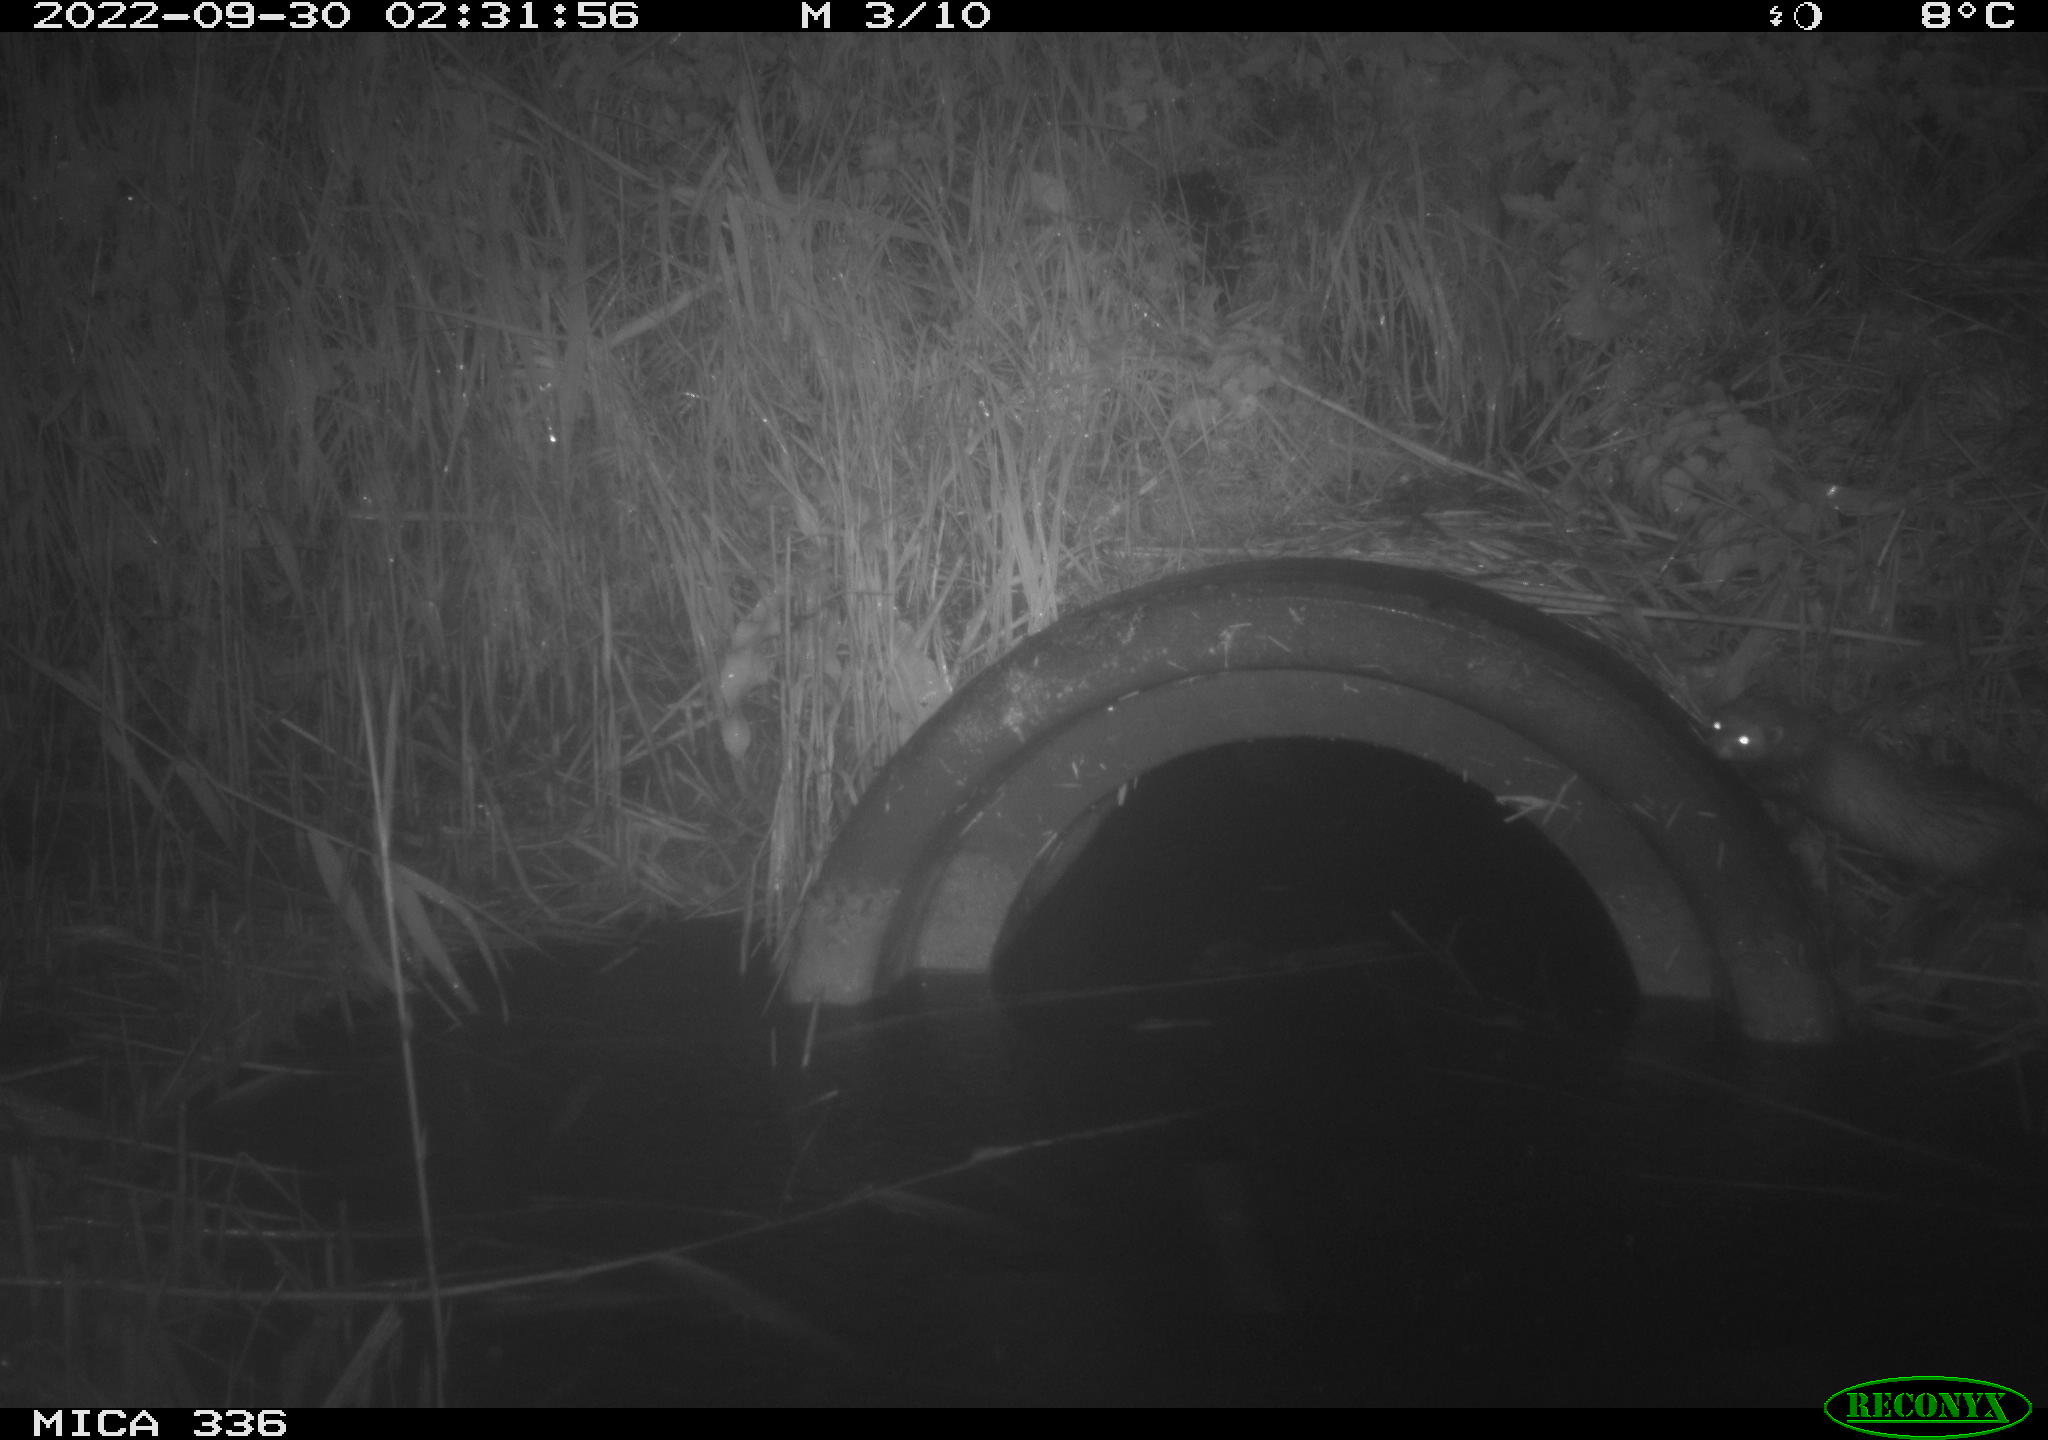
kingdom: Animalia
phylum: Chordata
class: Mammalia
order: Carnivora
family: Mustelidae
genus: Mustela
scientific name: Mustela putorius
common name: European polecat
